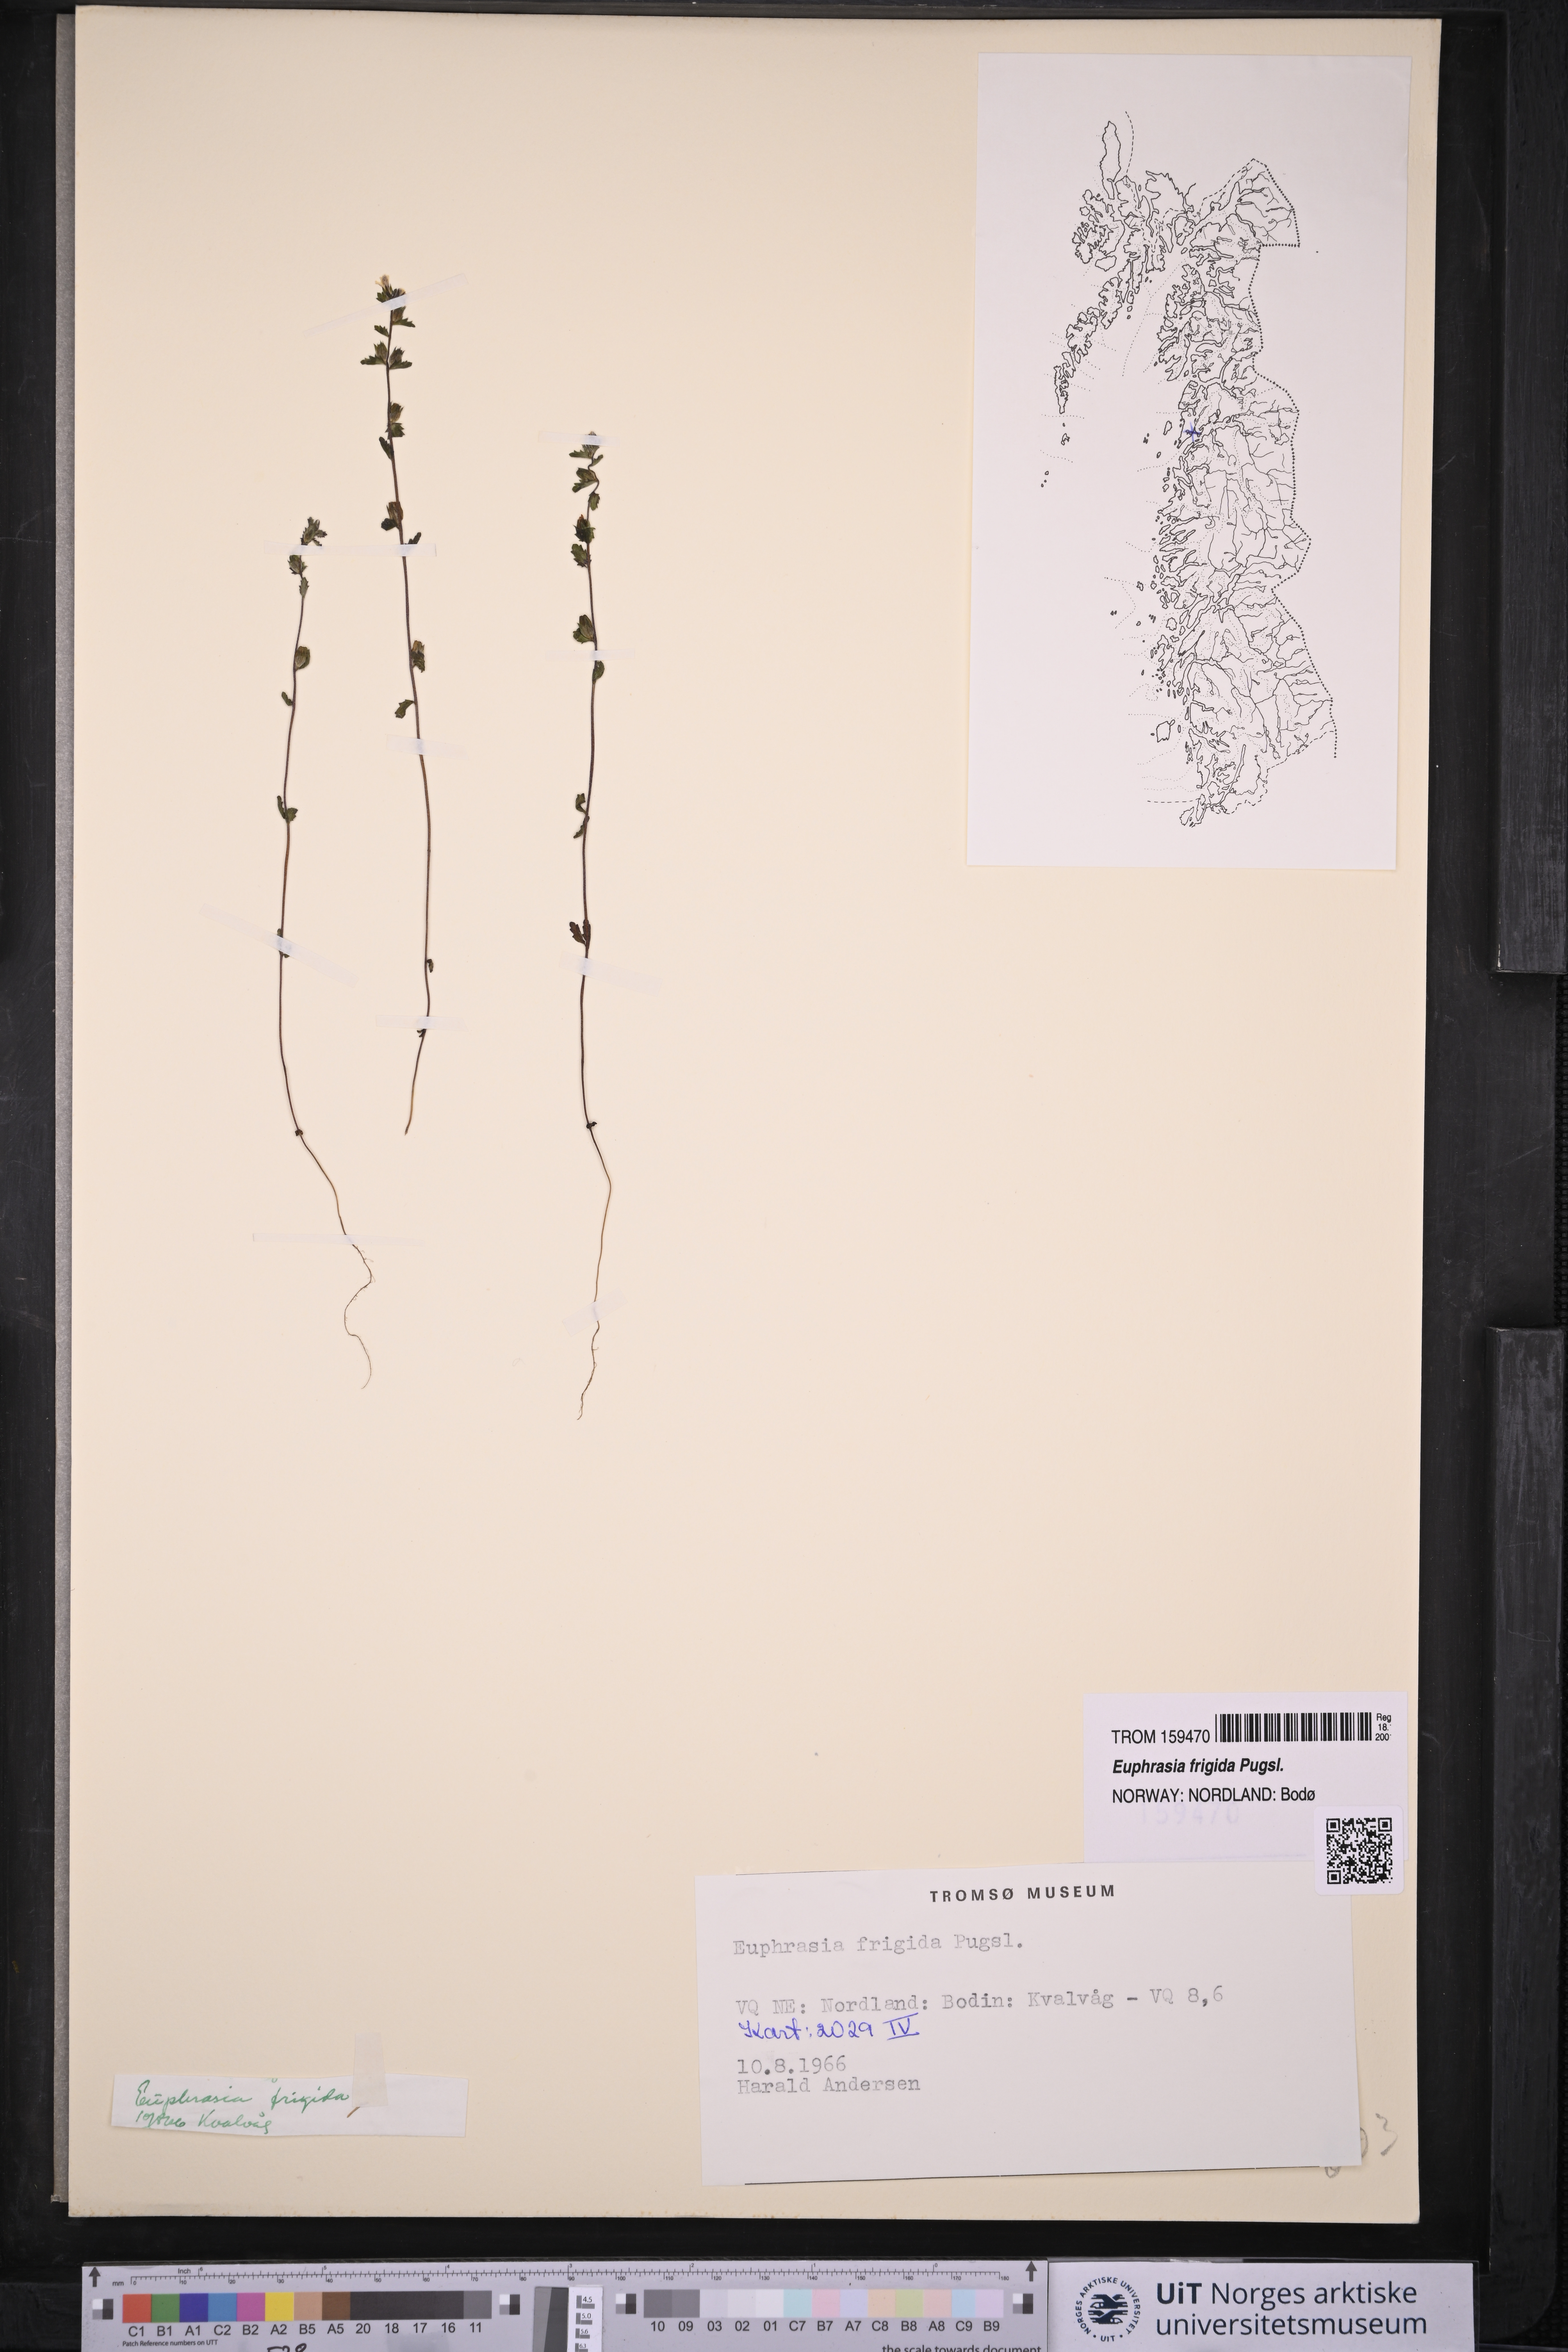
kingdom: Plantae
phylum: Tracheophyta
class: Magnoliopsida
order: Lamiales
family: Orobanchaceae
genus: Euphrasia
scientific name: Euphrasia frigida
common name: An eyebright
